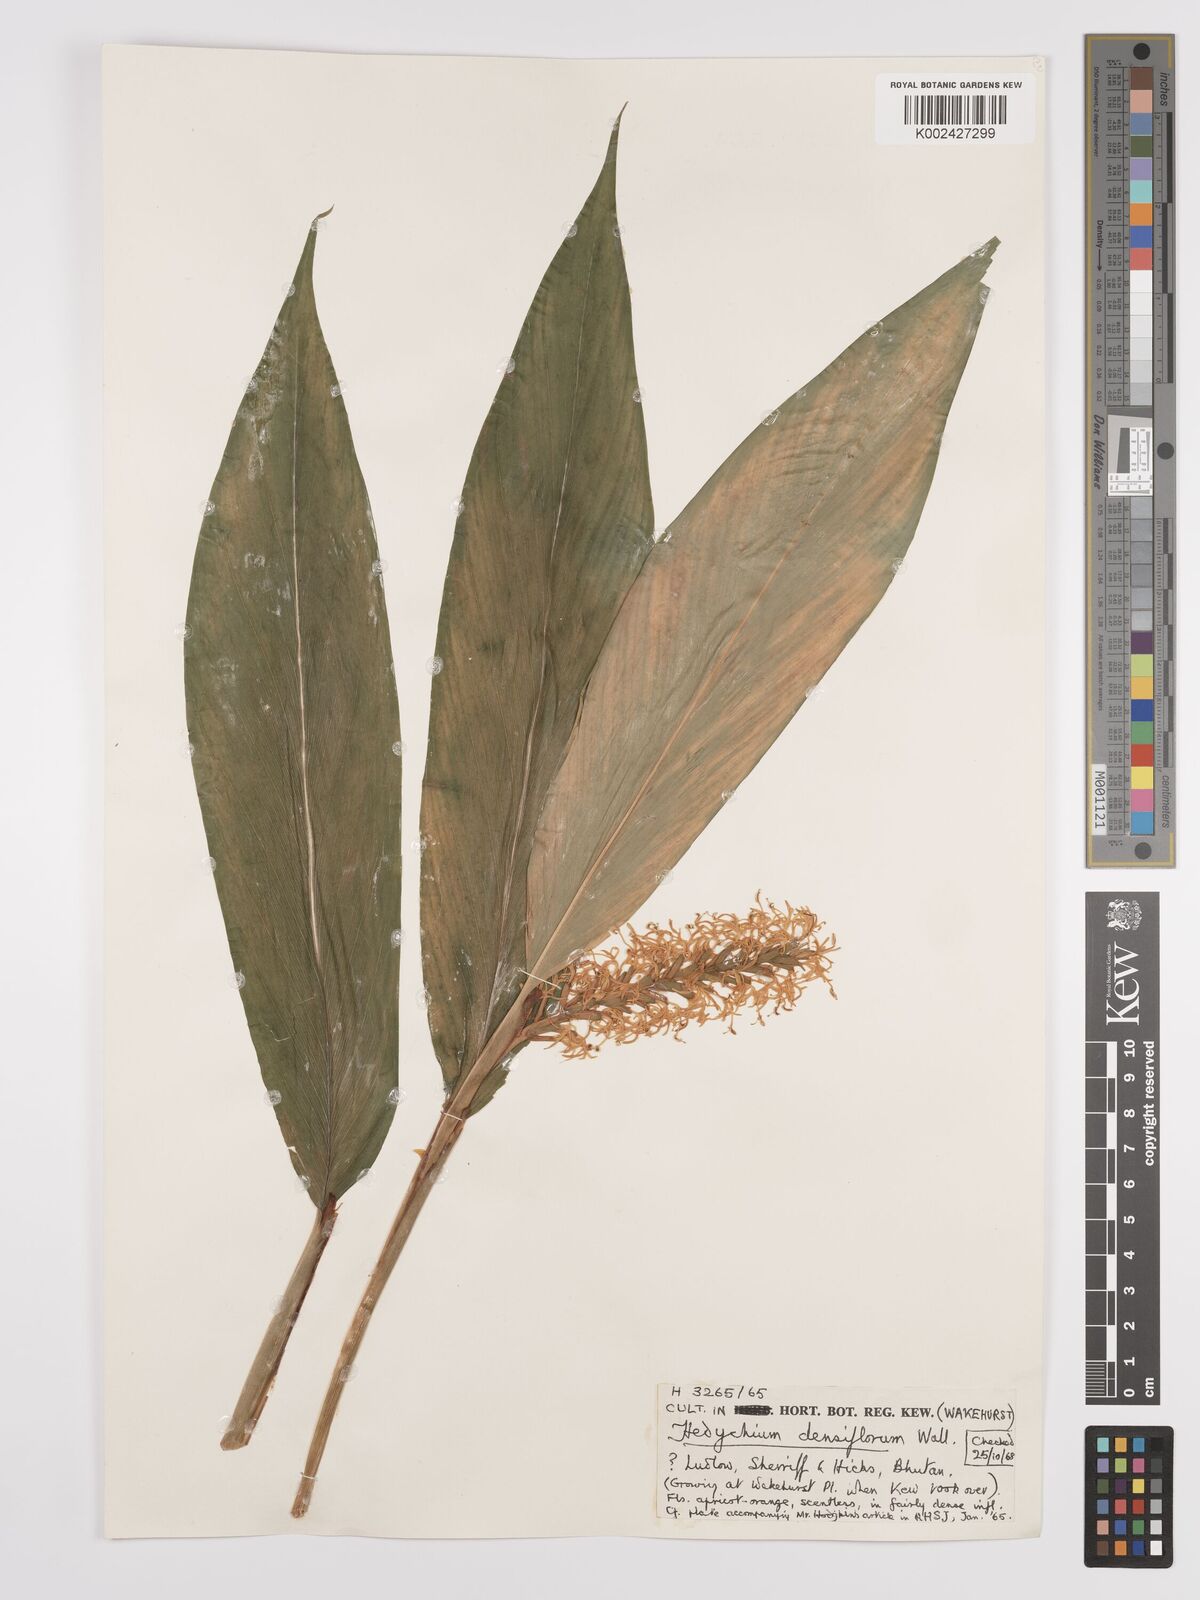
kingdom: Plantae
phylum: Tracheophyta
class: Liliopsida
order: Zingiberales
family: Zingiberaceae
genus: Hedychium
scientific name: Hedychium densiflorum
